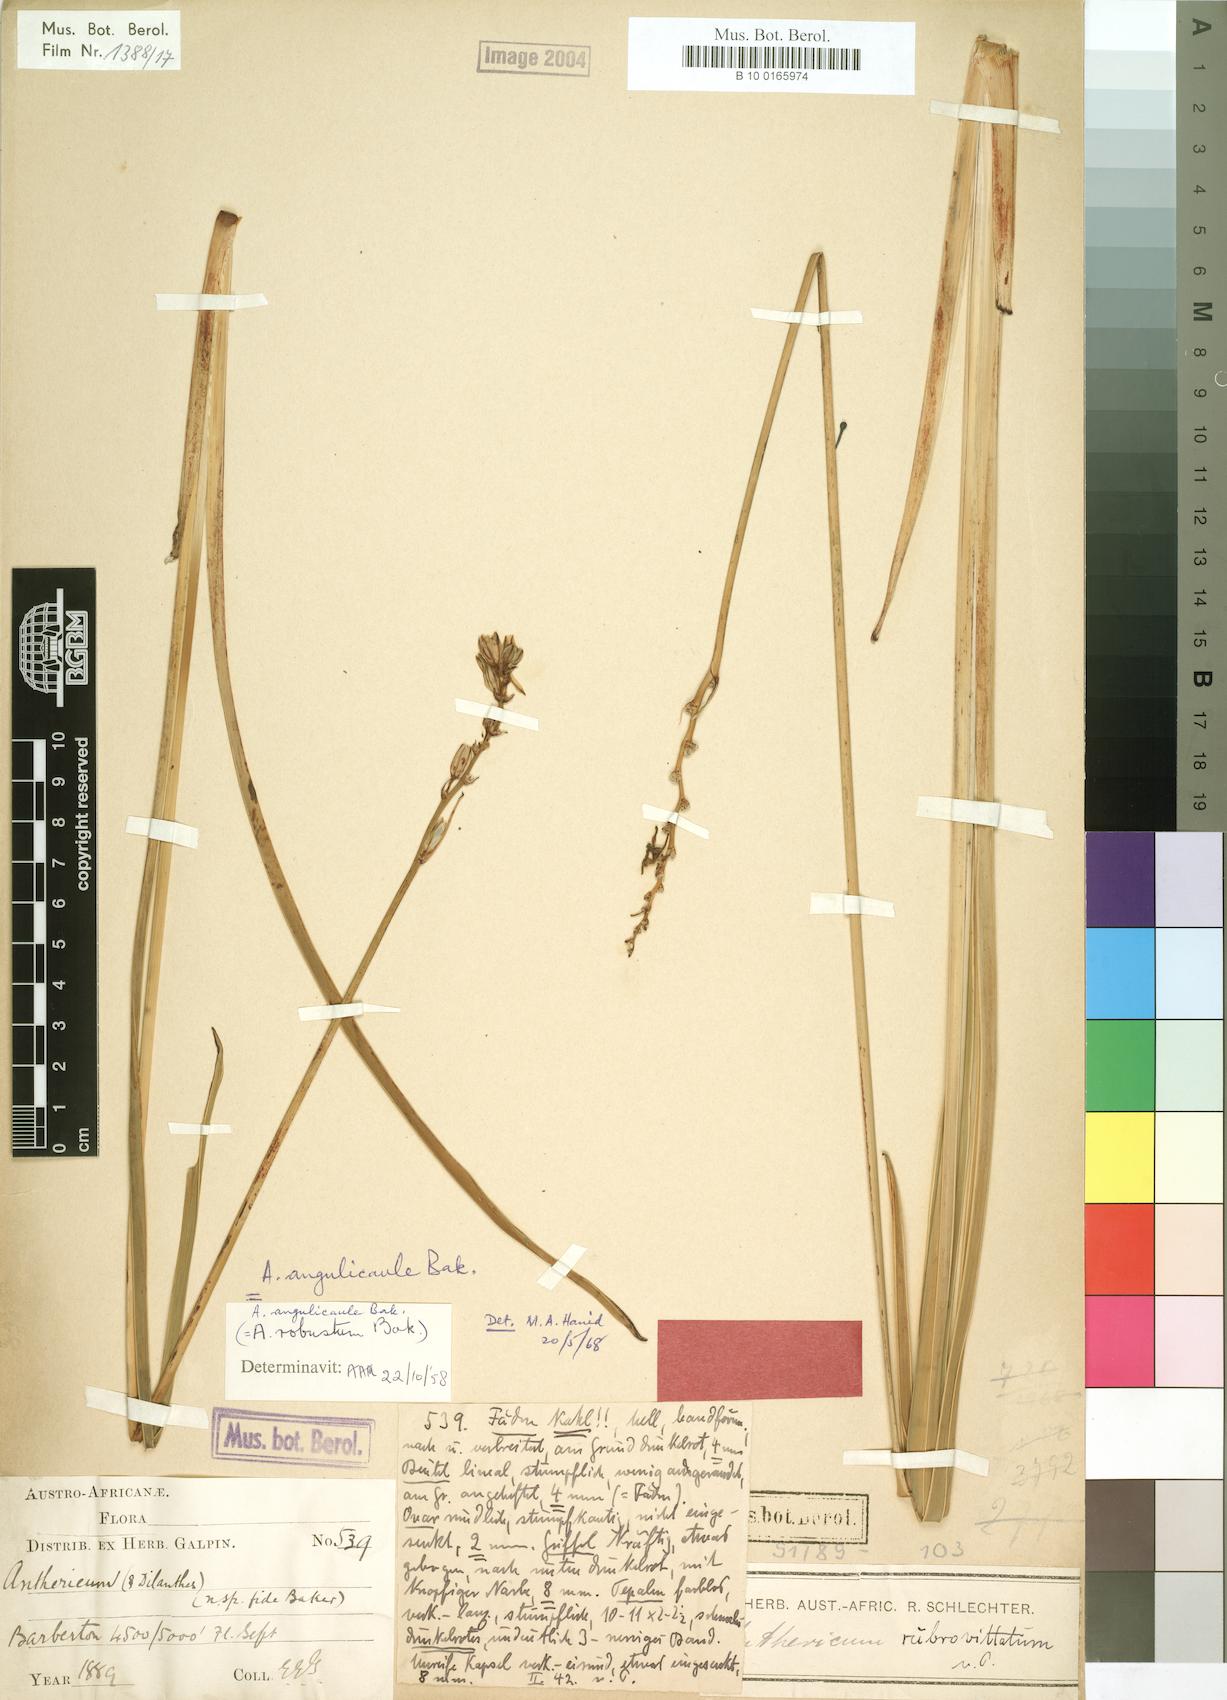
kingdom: Plantae
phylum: Tracheophyta
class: Liliopsida
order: Asparagales
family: Asparagaceae
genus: Chlorophytum
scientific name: Chlorophytum angulicaule
